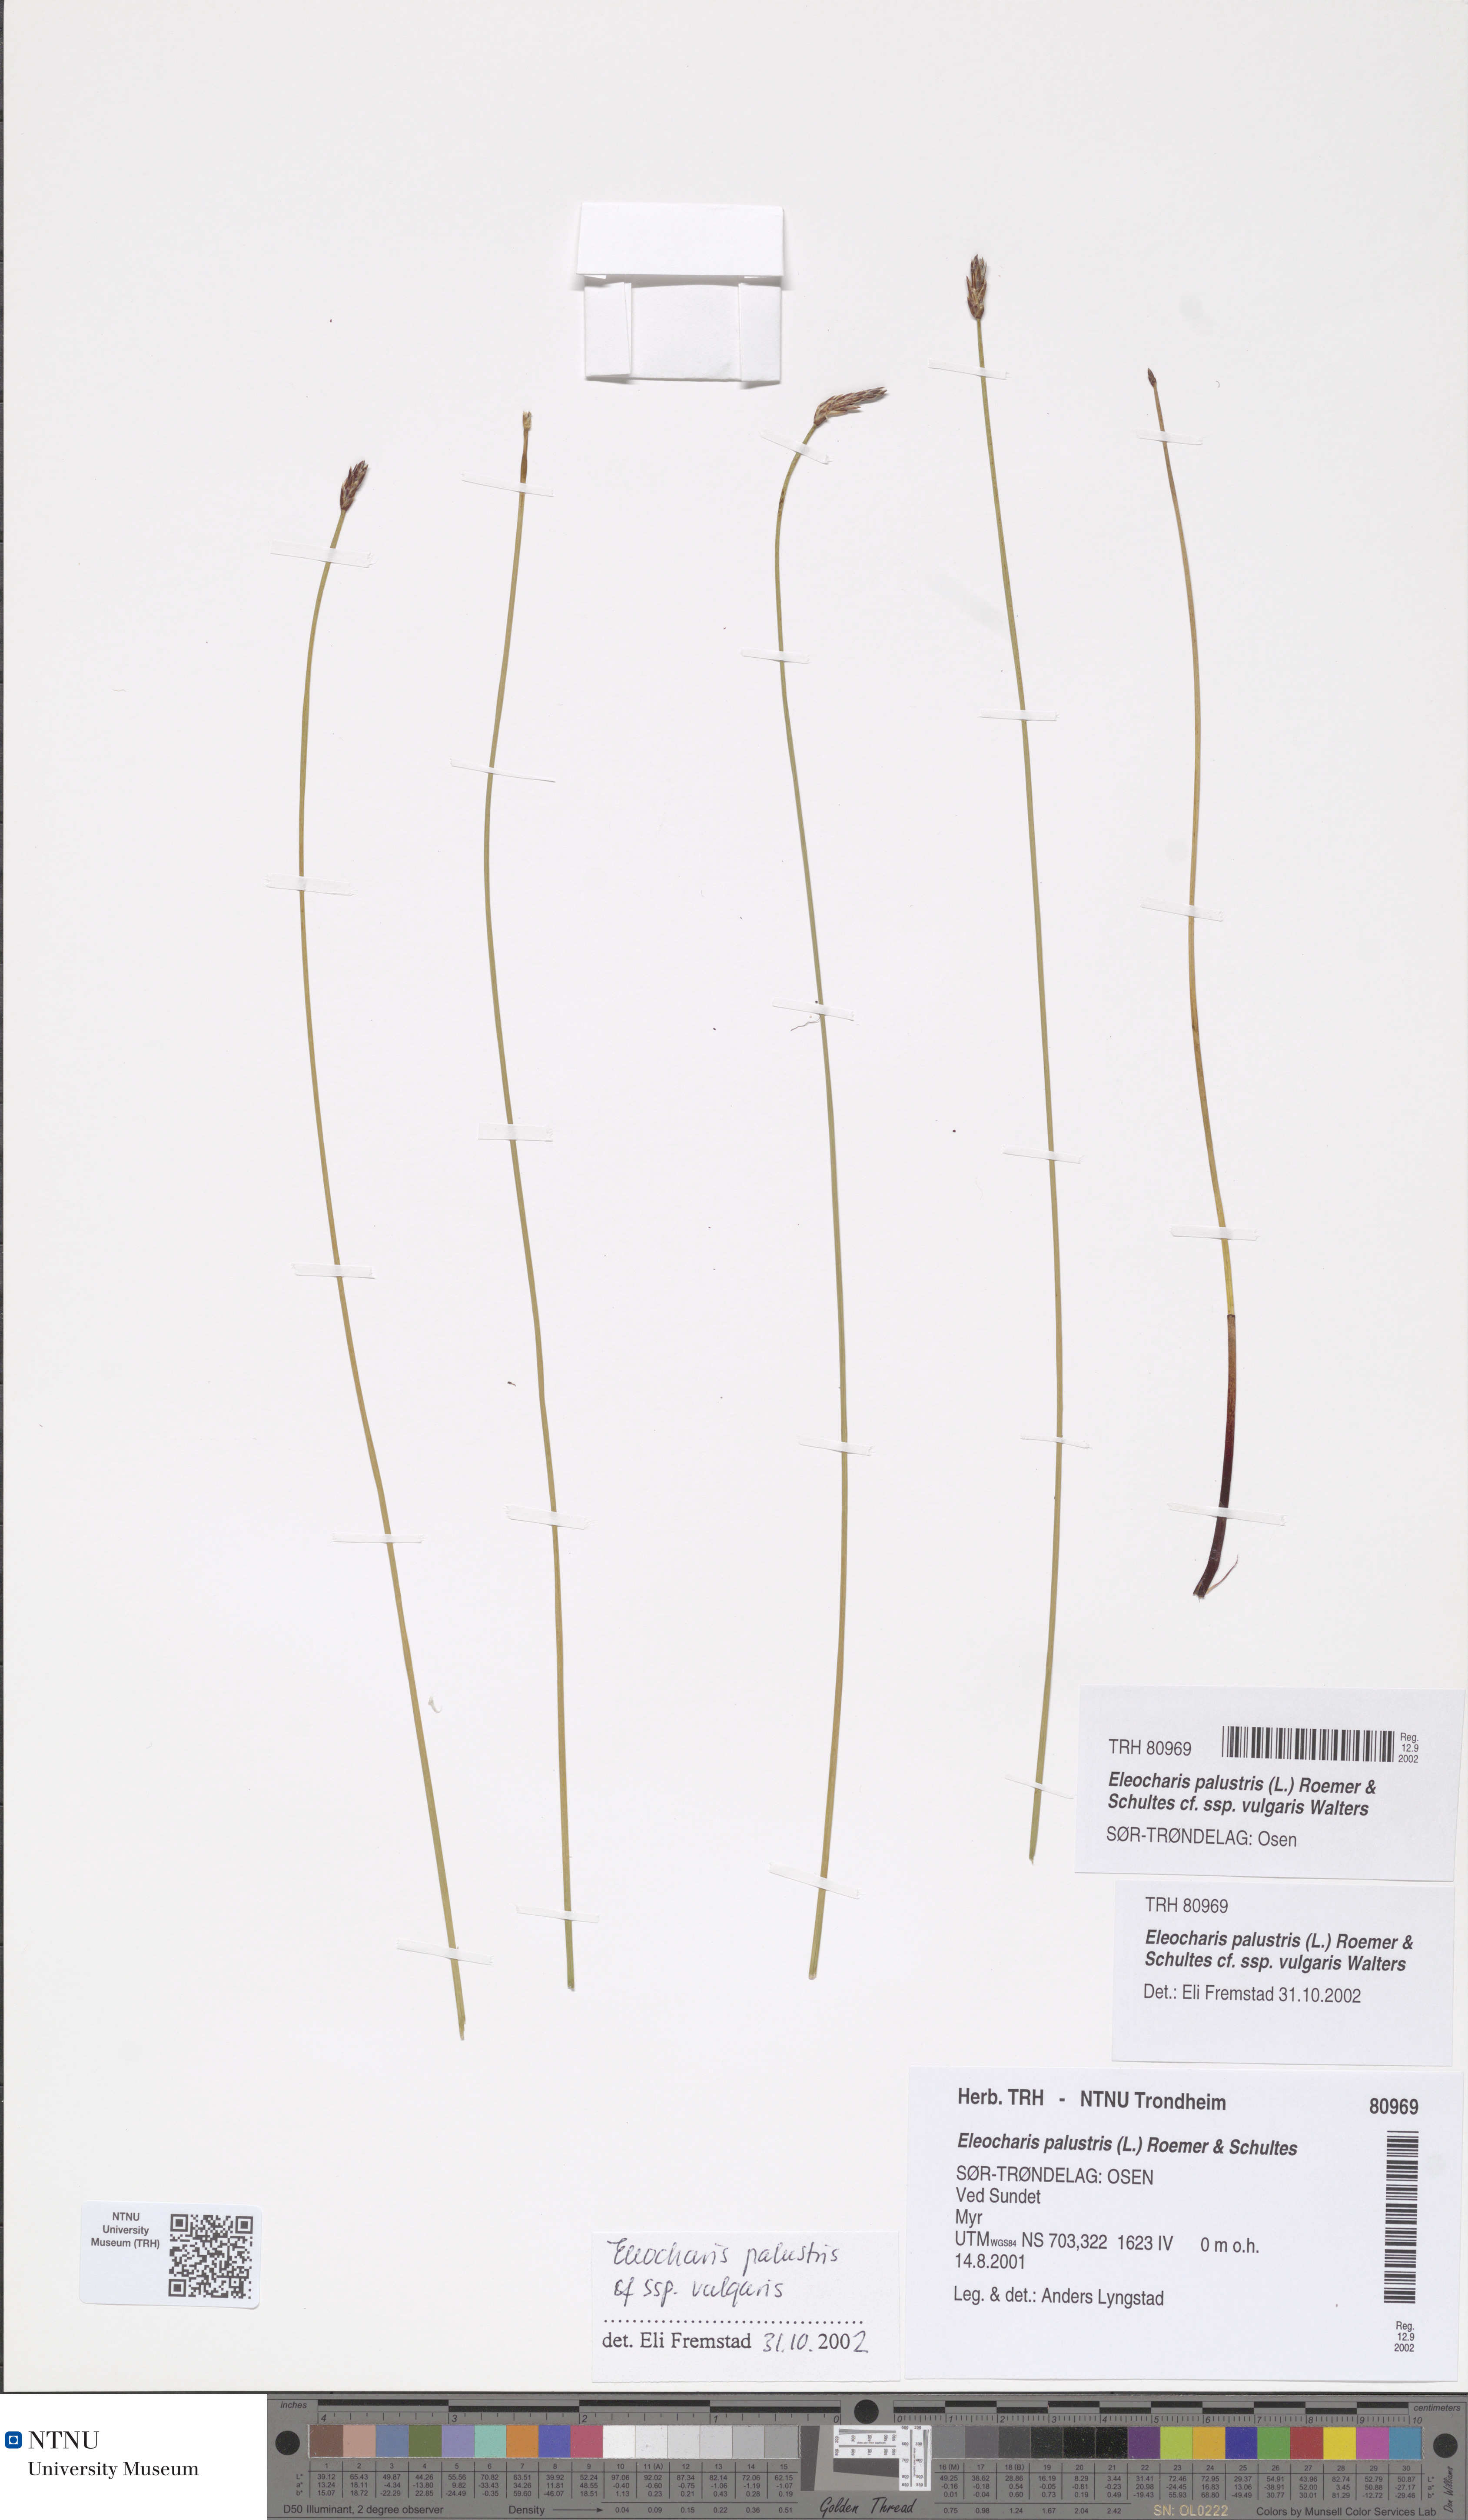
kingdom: Plantae
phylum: Tracheophyta
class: Liliopsida
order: Poales
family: Cyperaceae
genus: Eleocharis
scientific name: Eleocharis palustris
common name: Common spike-rush
